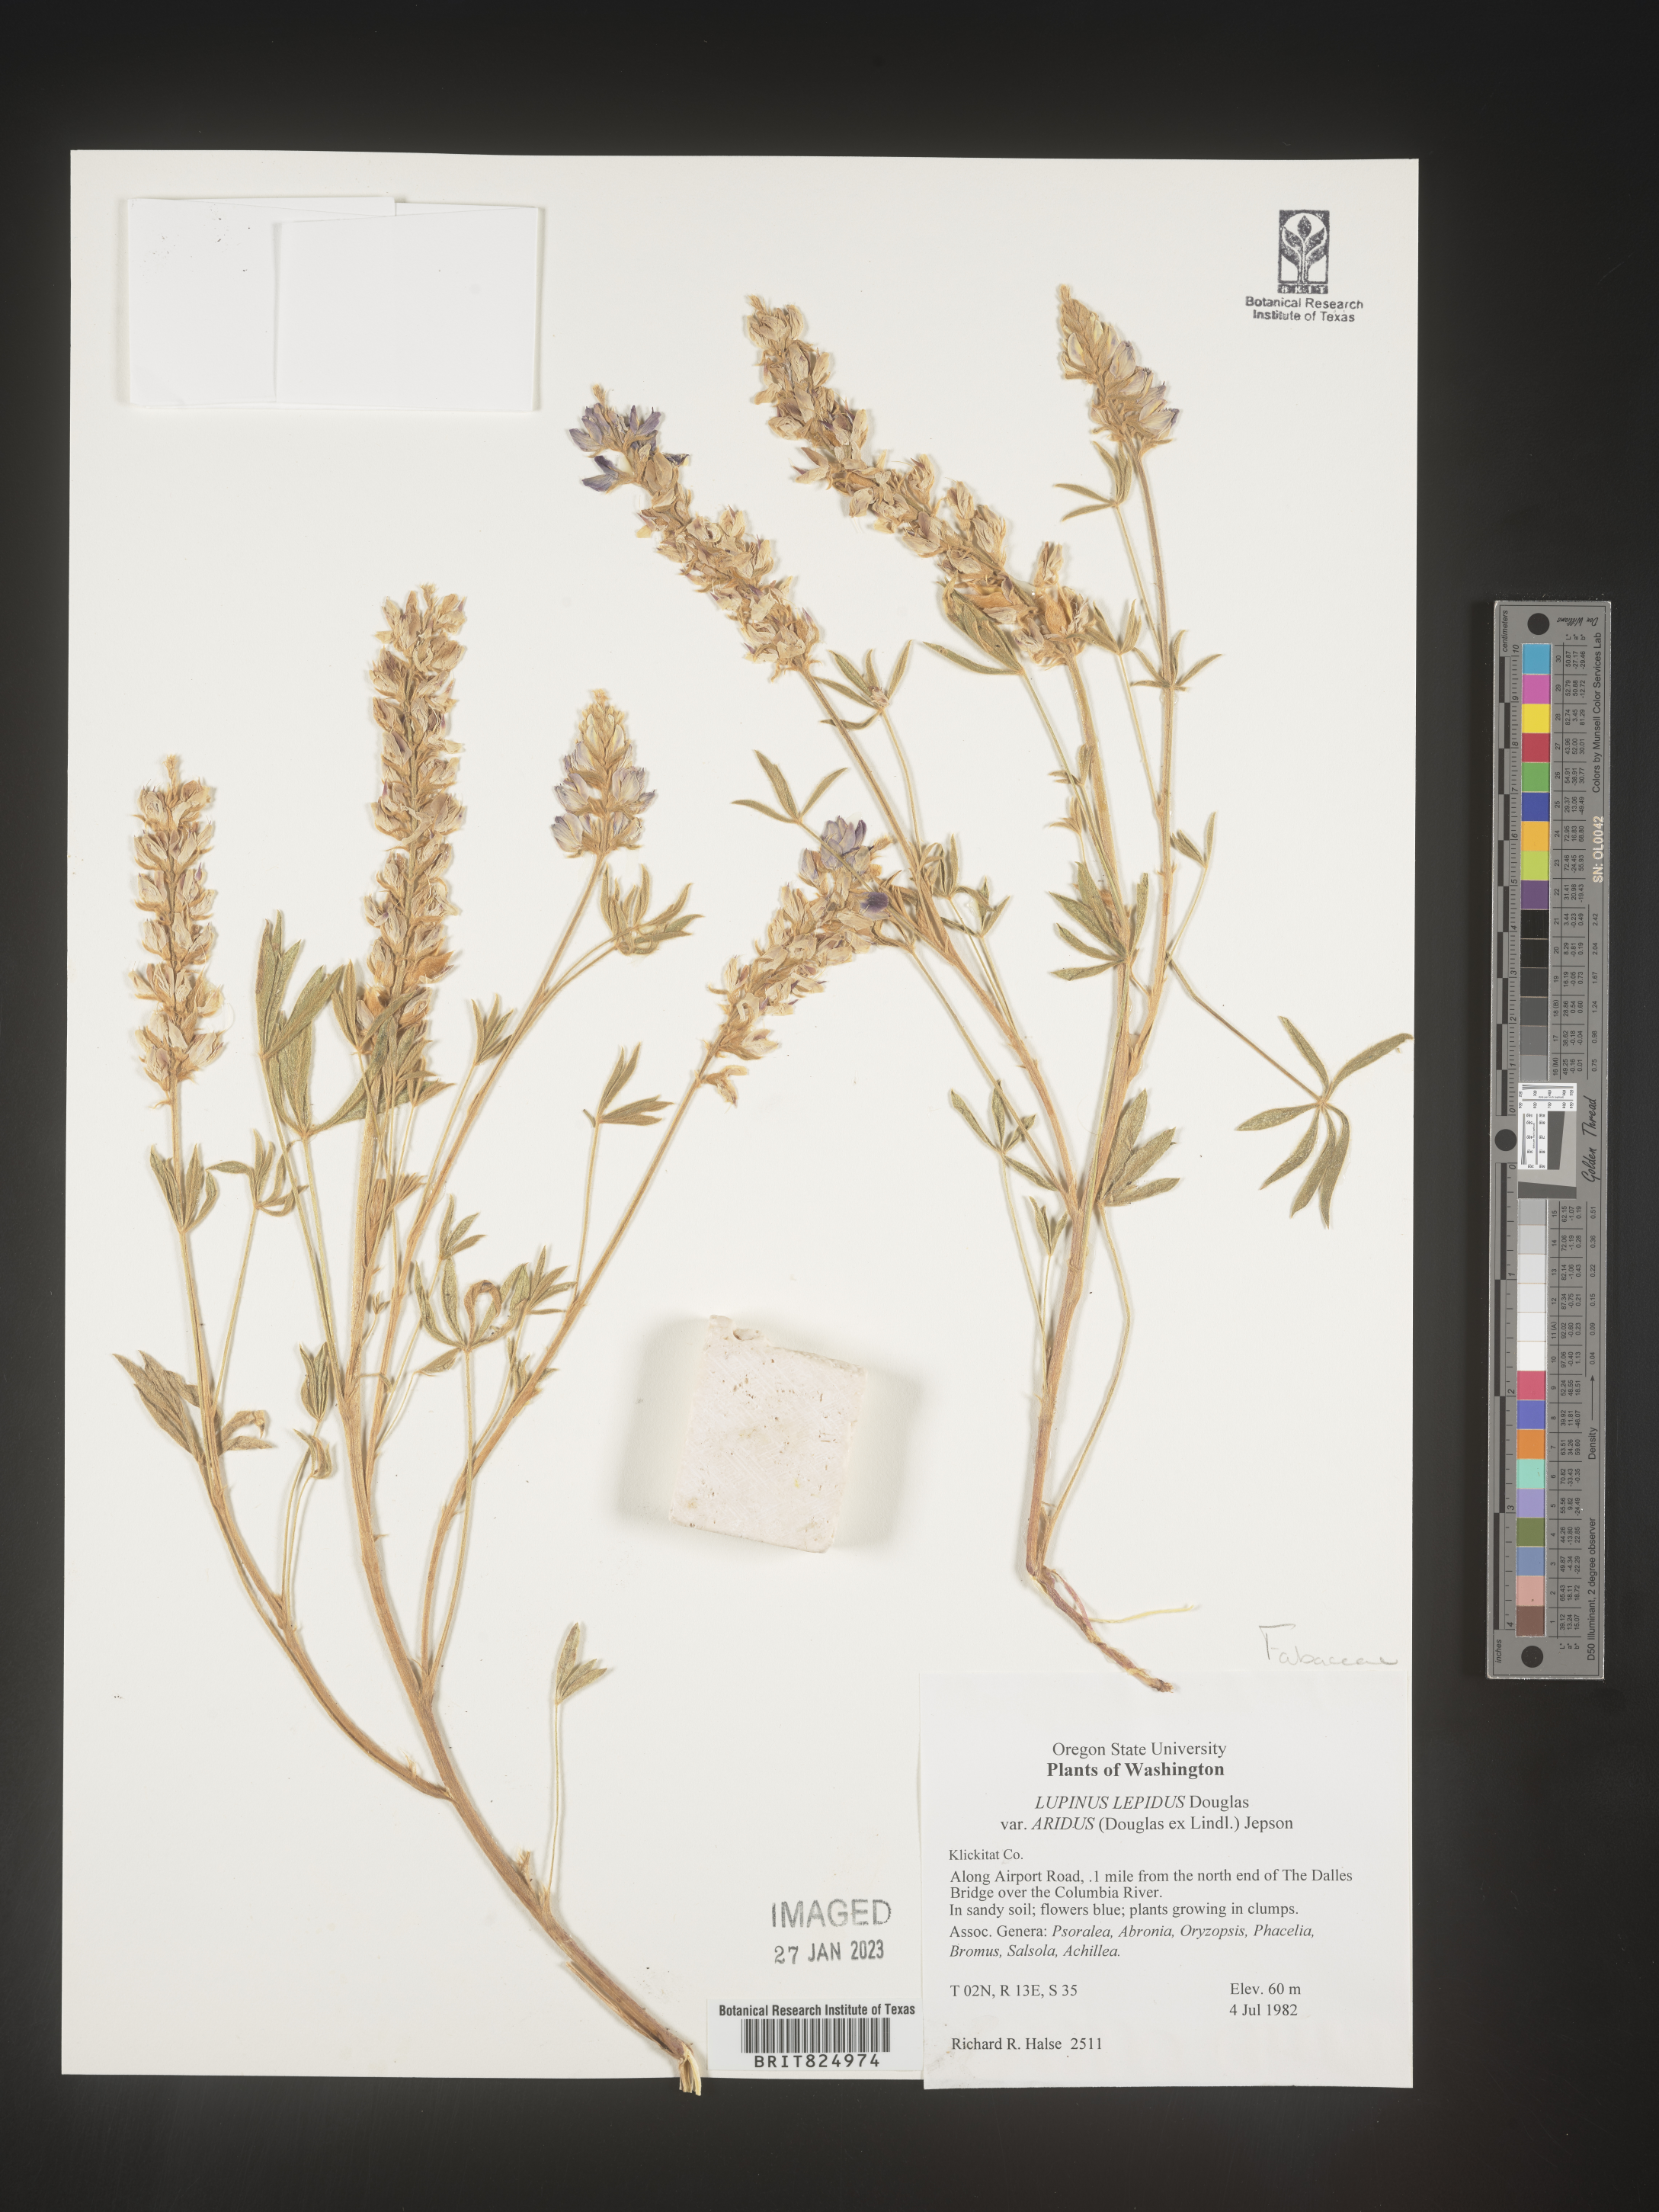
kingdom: Plantae
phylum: Tracheophyta
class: Magnoliopsida
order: Fabales
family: Fabaceae
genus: Lupinus
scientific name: Lupinus
